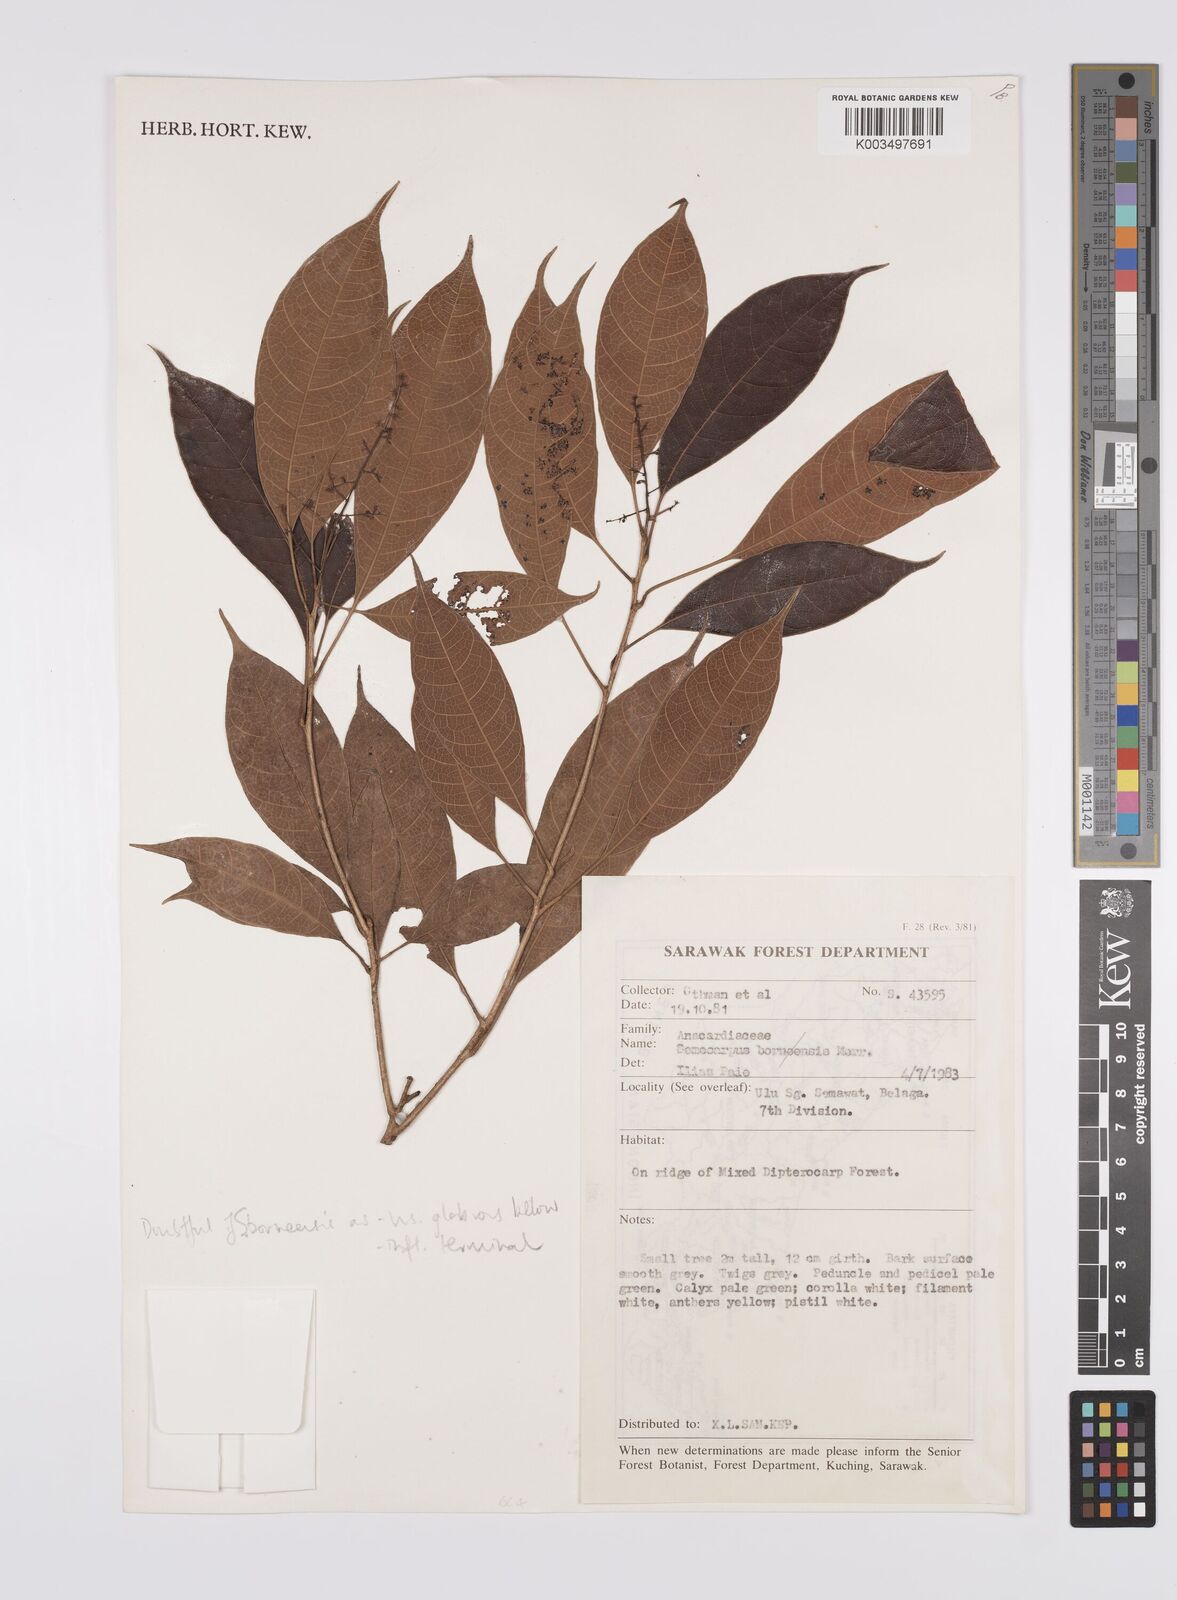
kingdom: Plantae
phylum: Tracheophyta
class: Magnoliopsida
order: Sapindales
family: Anacardiaceae
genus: Semecarpus
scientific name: Semecarpus
